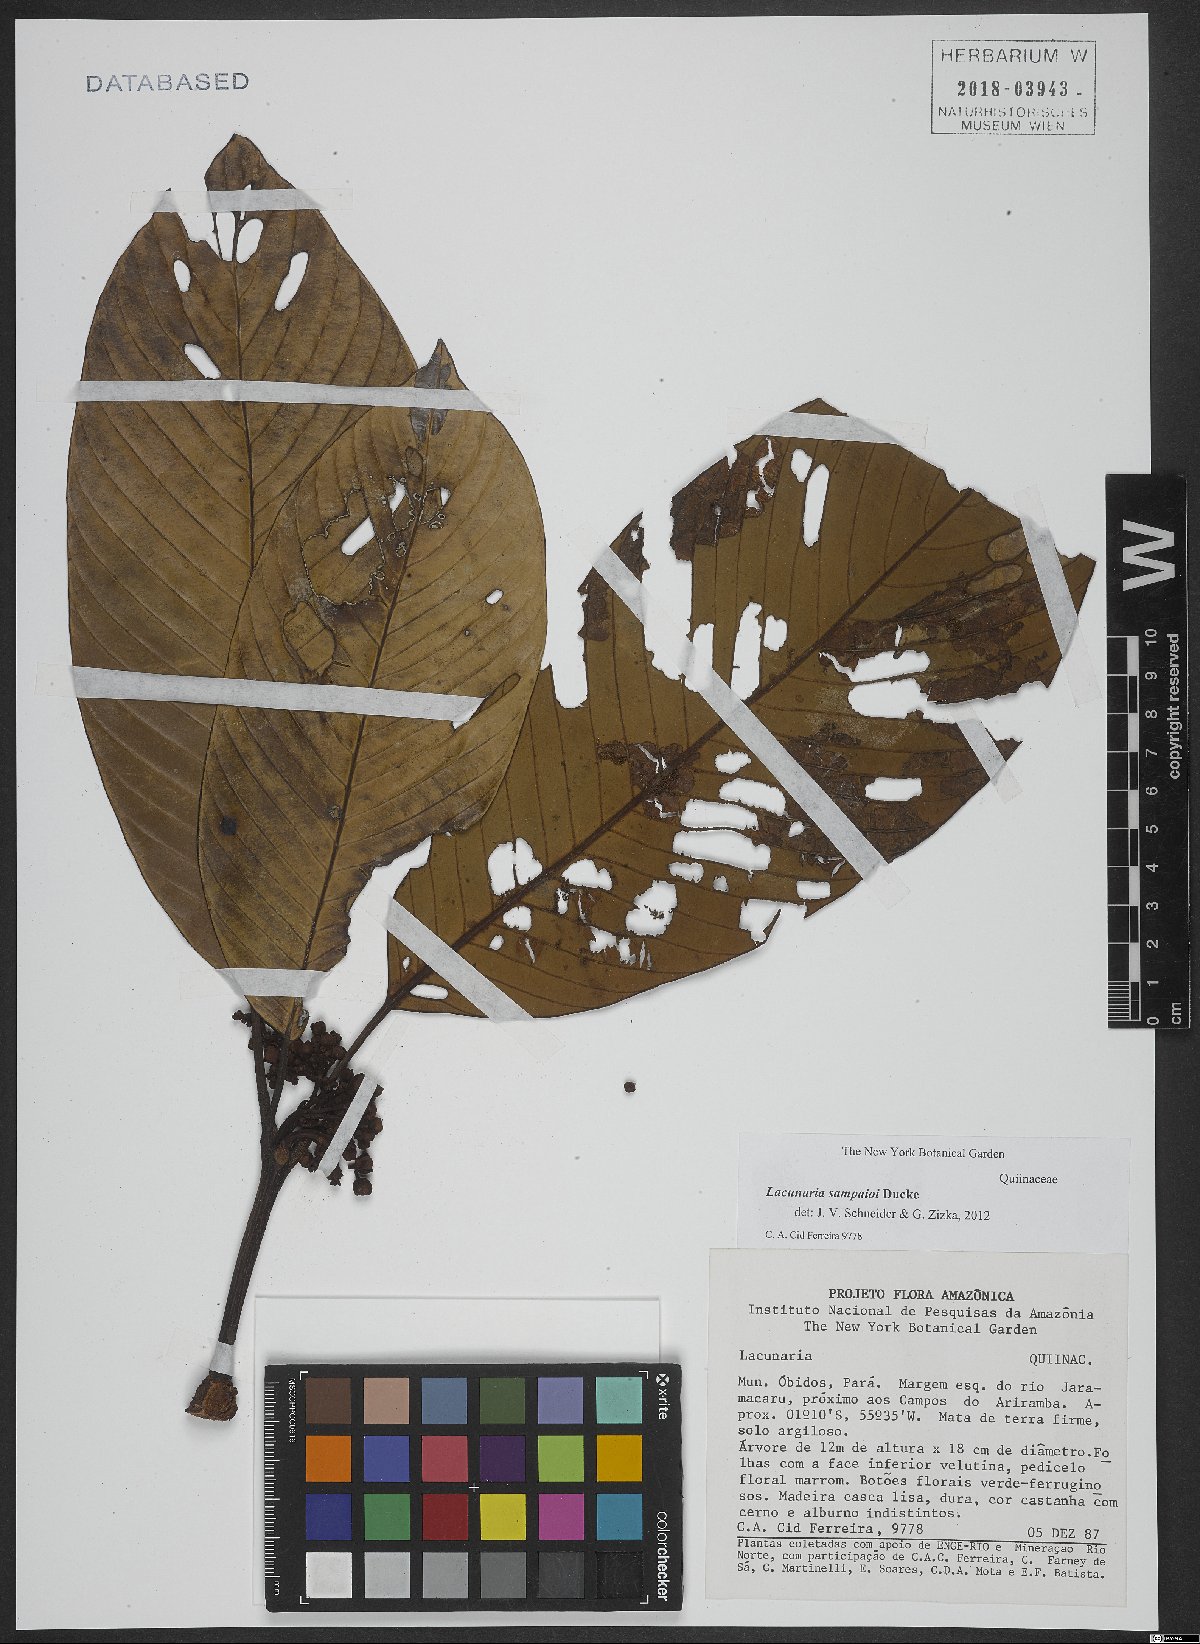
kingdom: Plantae
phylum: Tracheophyta
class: Magnoliopsida
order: Malpighiales
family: Quiinaceae
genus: Lacunaria
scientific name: Lacunaria sampaioi
